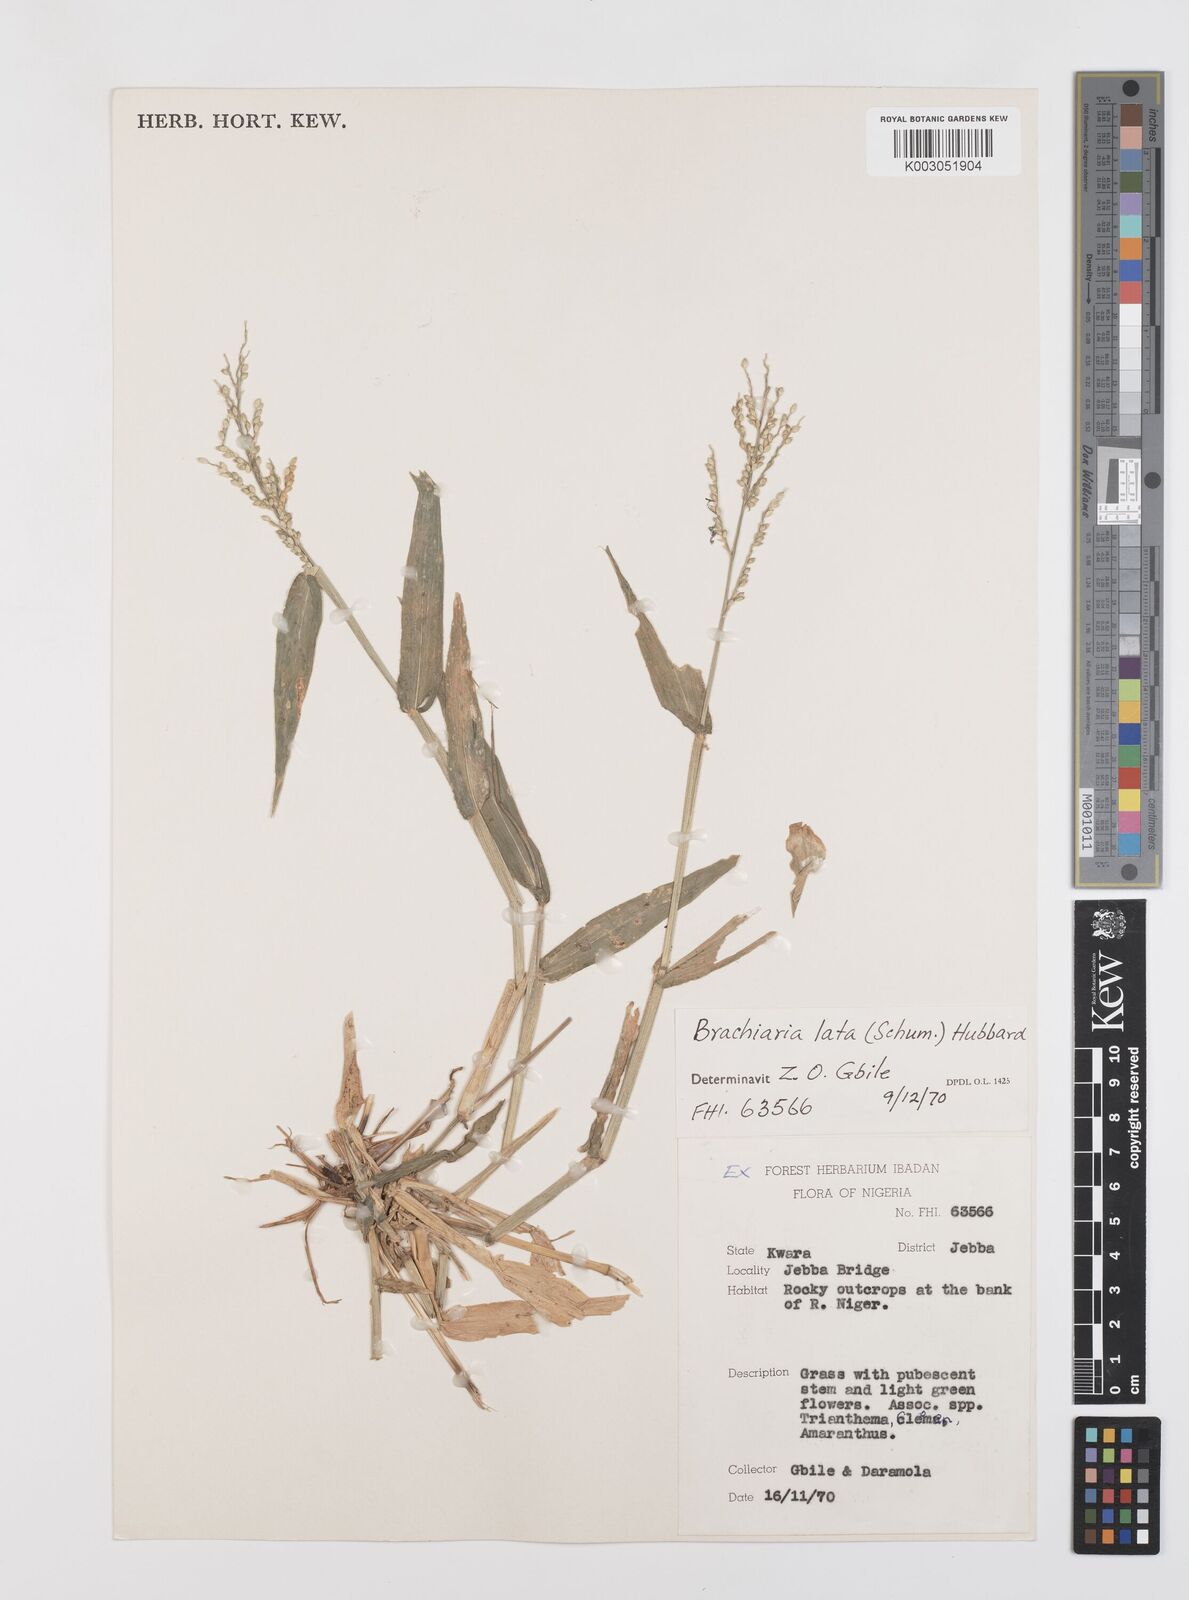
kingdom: Plantae
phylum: Tracheophyta
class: Liliopsida
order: Poales
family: Poaceae
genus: Urochloa
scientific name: Urochloa lata
